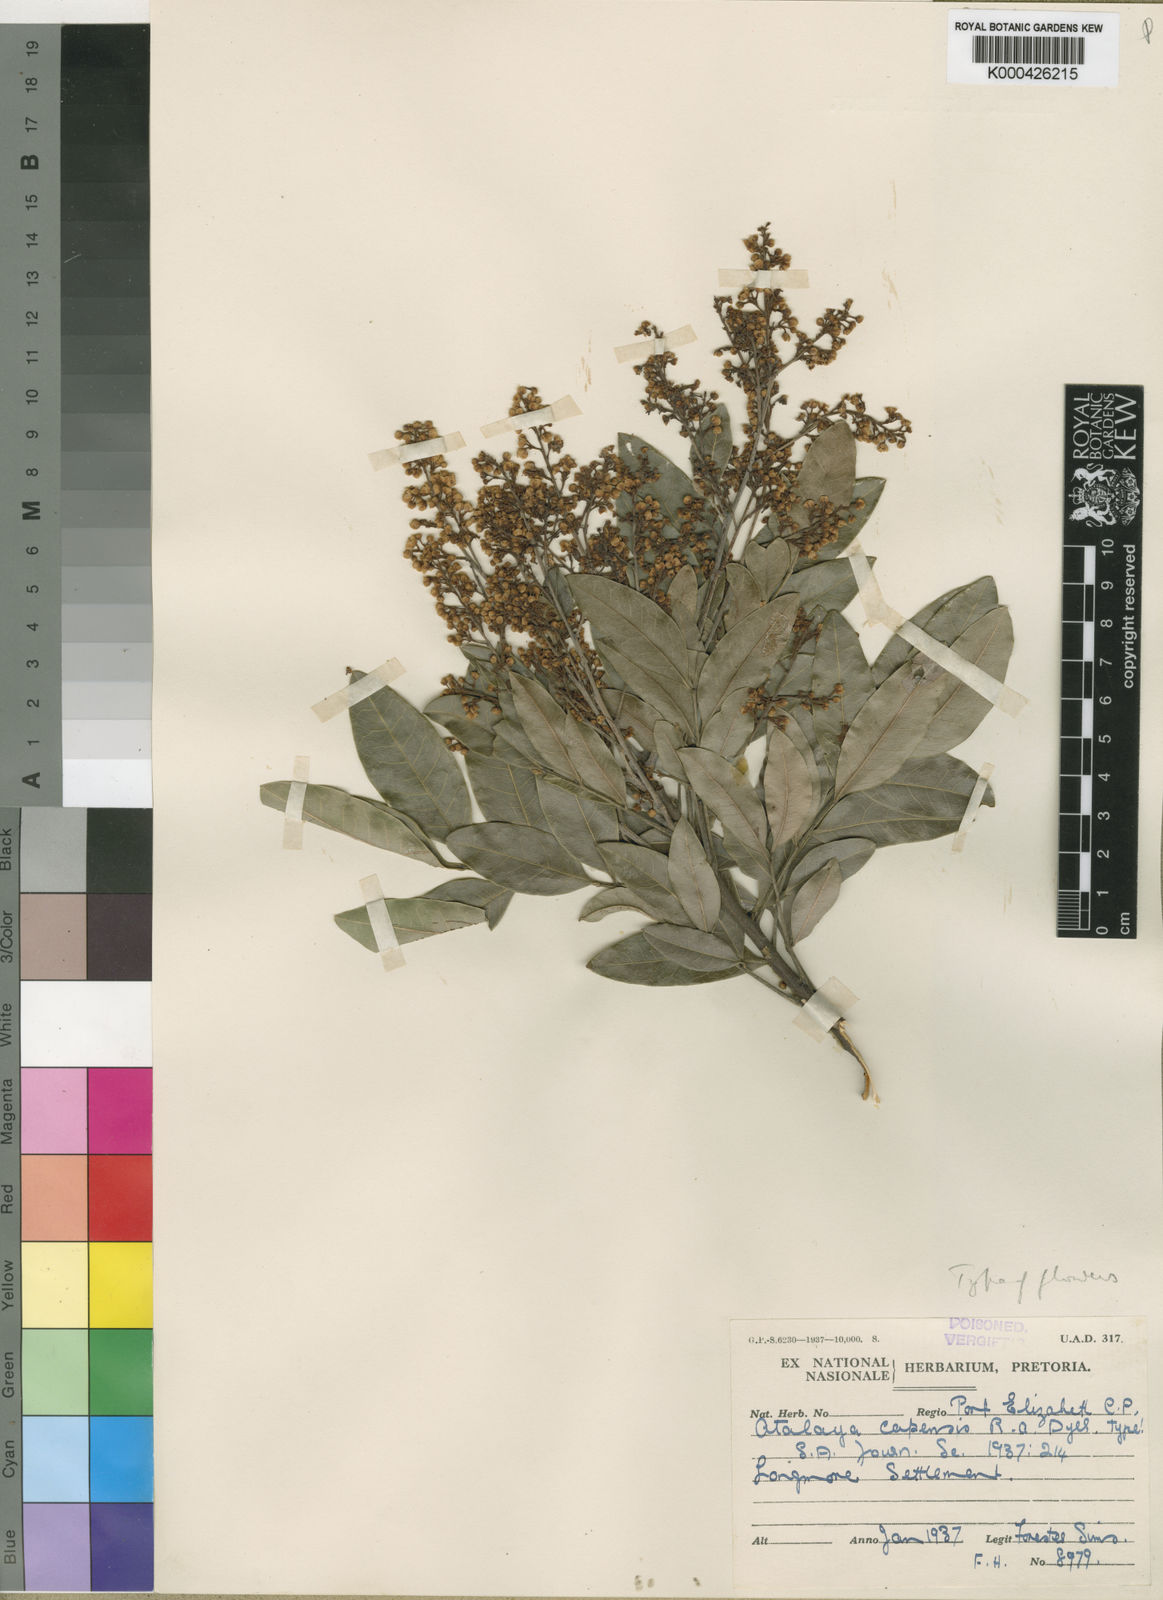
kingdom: Plantae
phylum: Tracheophyta
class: Magnoliopsida
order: Sapindales
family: Sapindaceae
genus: Atalaya
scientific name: Atalaya capensis
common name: Cape krantz ash
